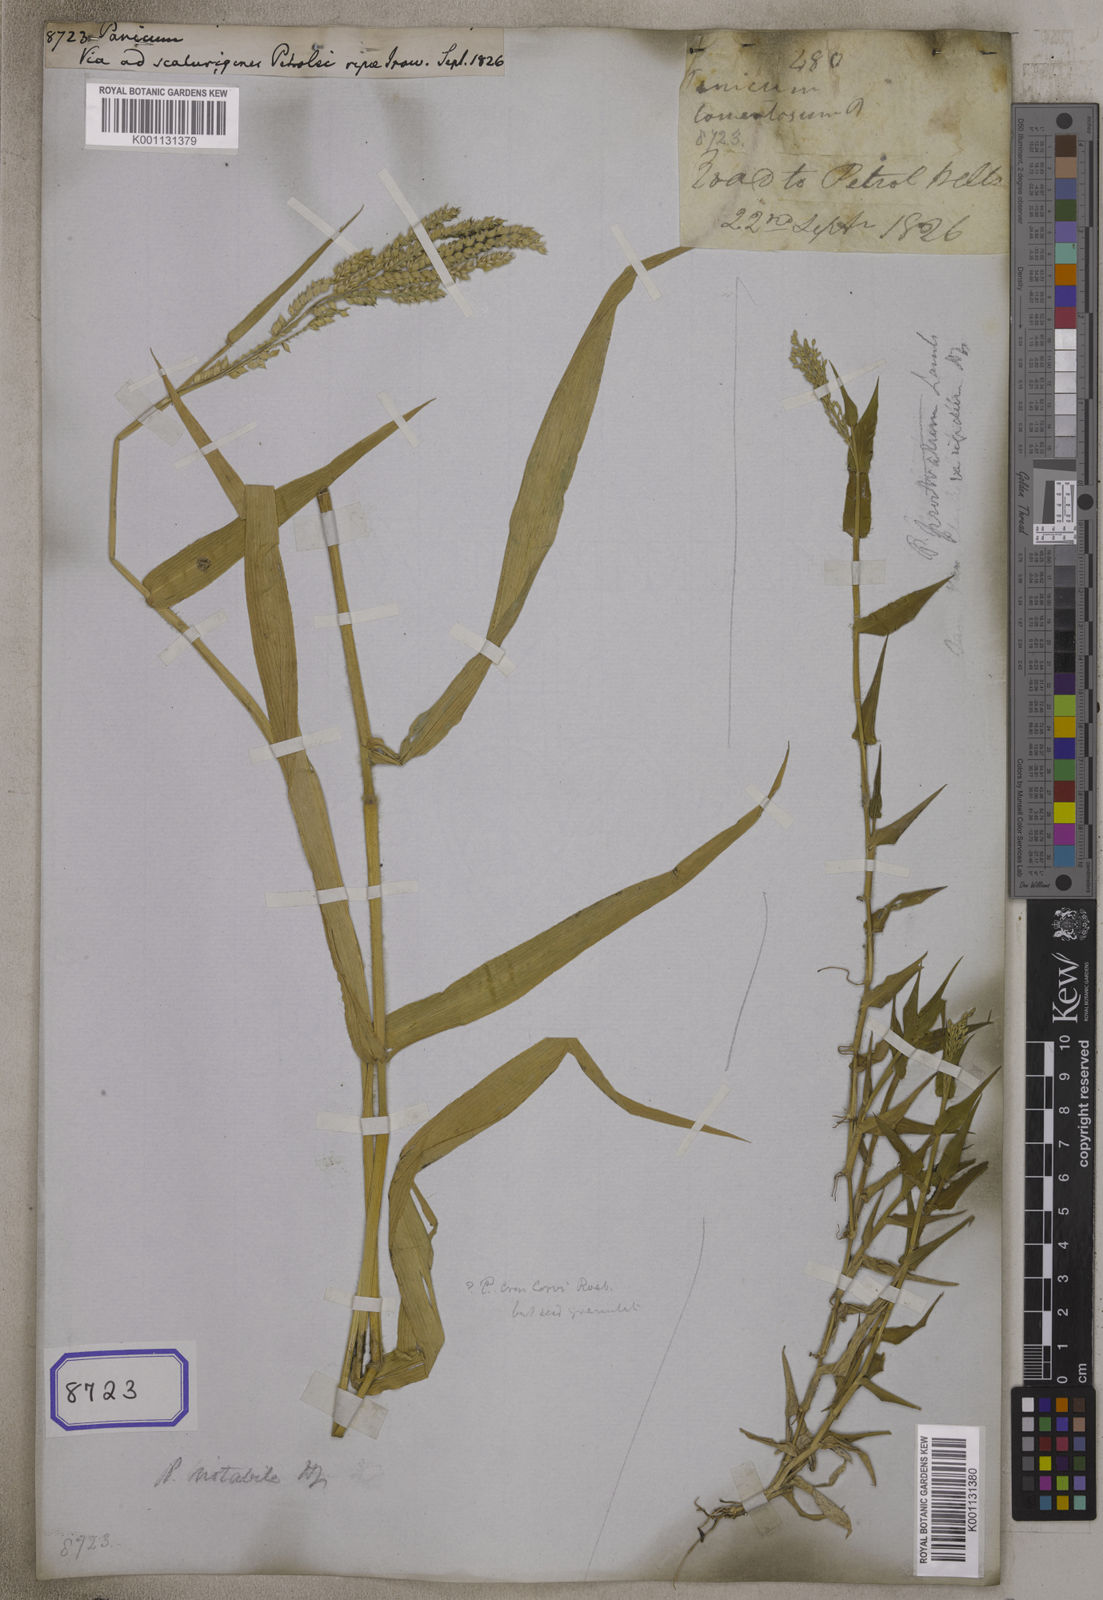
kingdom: Plantae
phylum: Tracheophyta
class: Liliopsida
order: Poales
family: Poaceae
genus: Panicum
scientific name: Panicum
